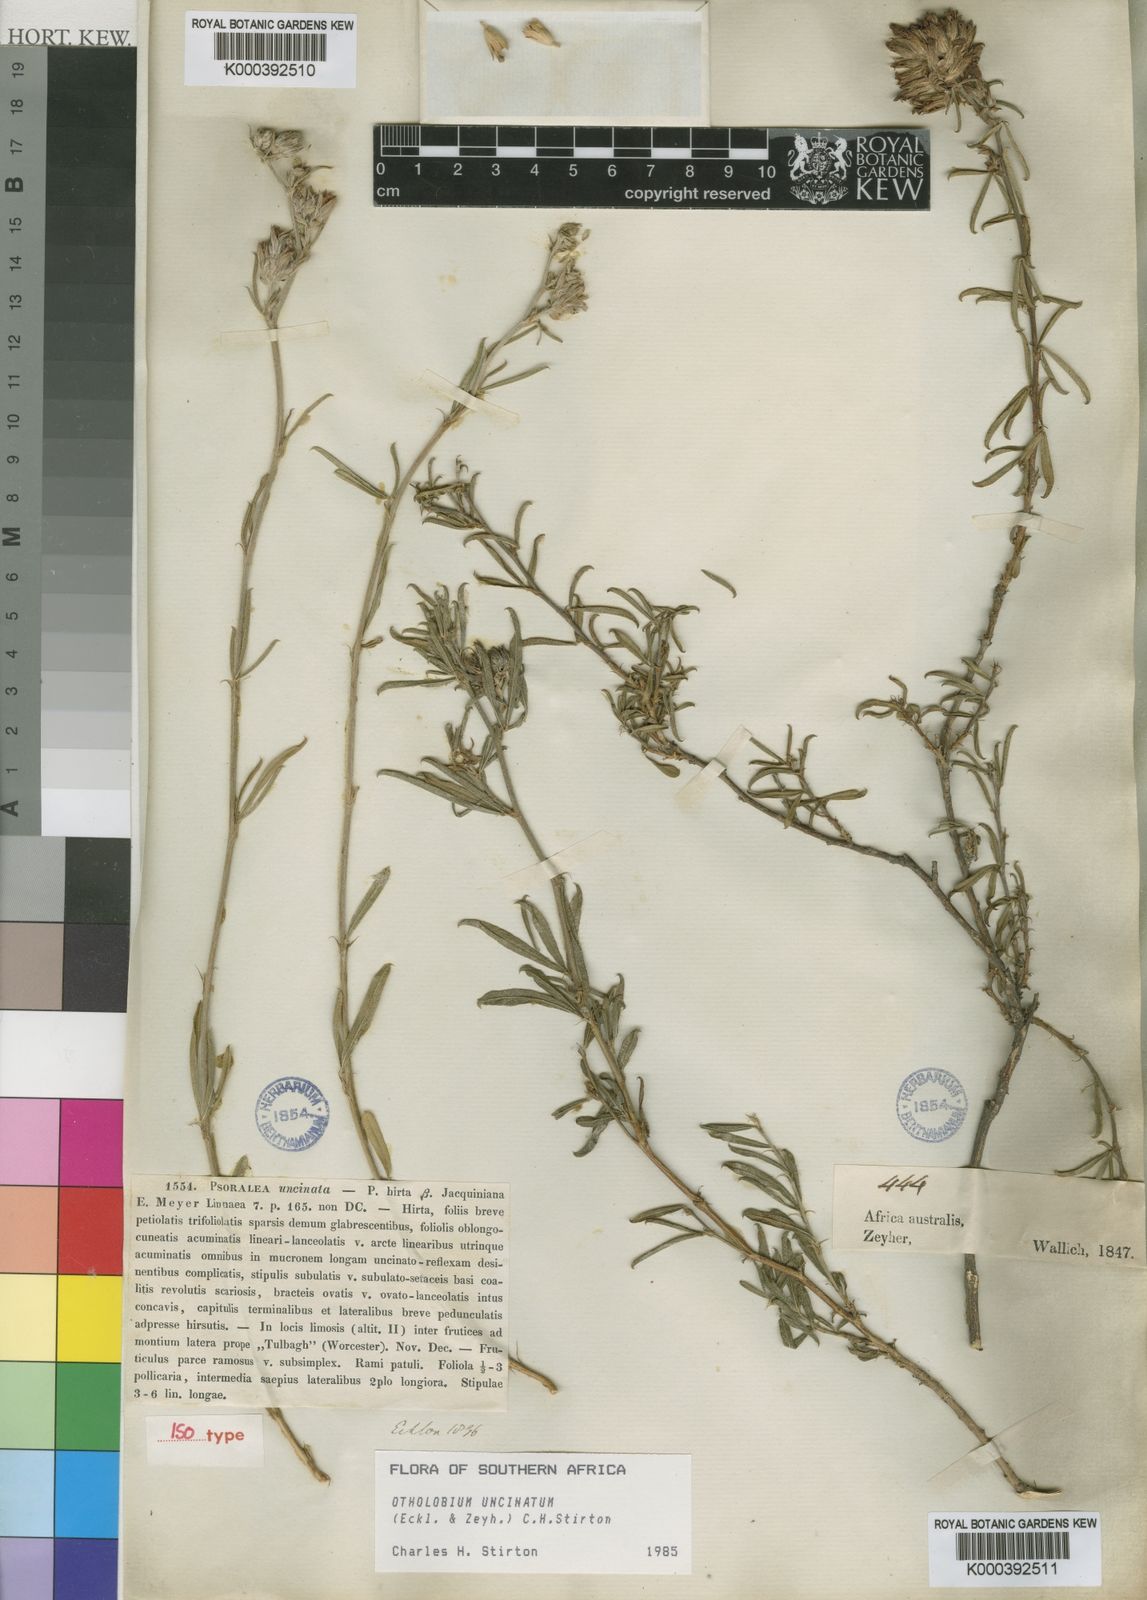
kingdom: Plantae
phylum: Tracheophyta
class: Magnoliopsida
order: Fabales
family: Fabaceae
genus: Psoralea
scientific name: Psoralea uncinata
